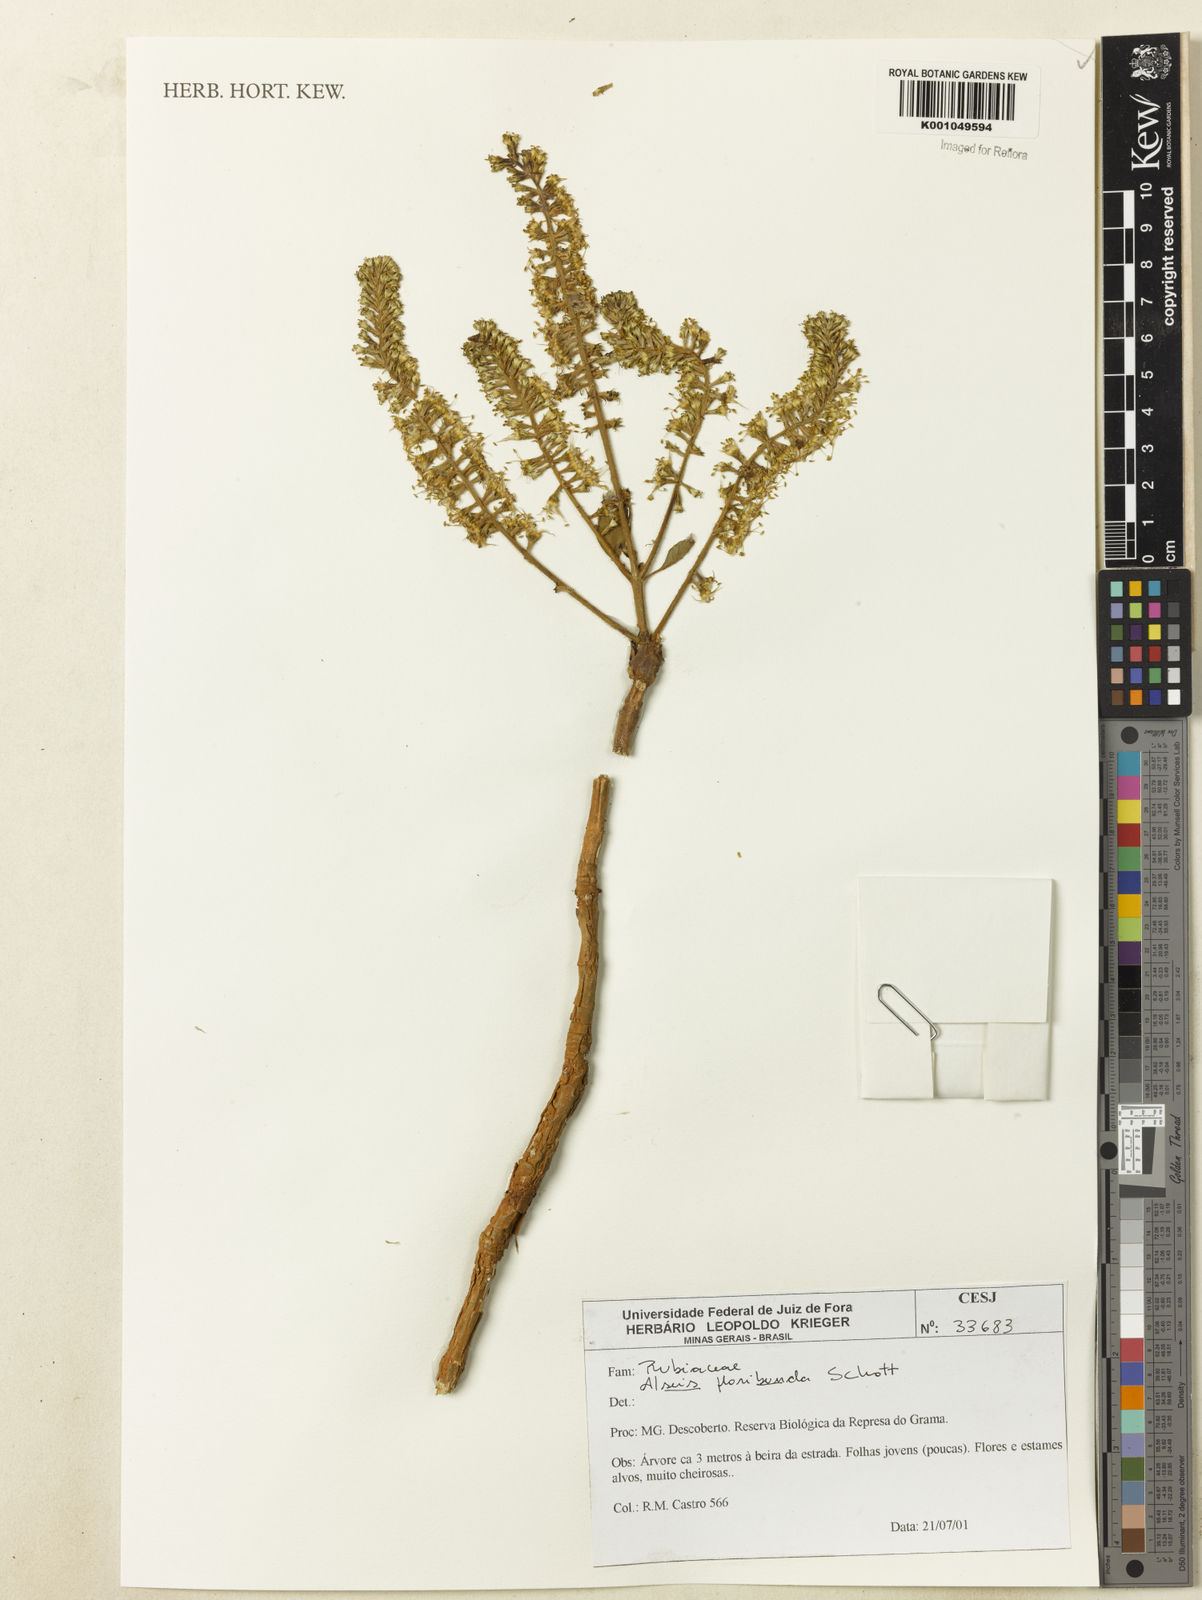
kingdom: Plantae
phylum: Tracheophyta
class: Magnoliopsida
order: Gentianales
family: Rubiaceae
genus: Alseis
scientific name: Alseis floribunda
